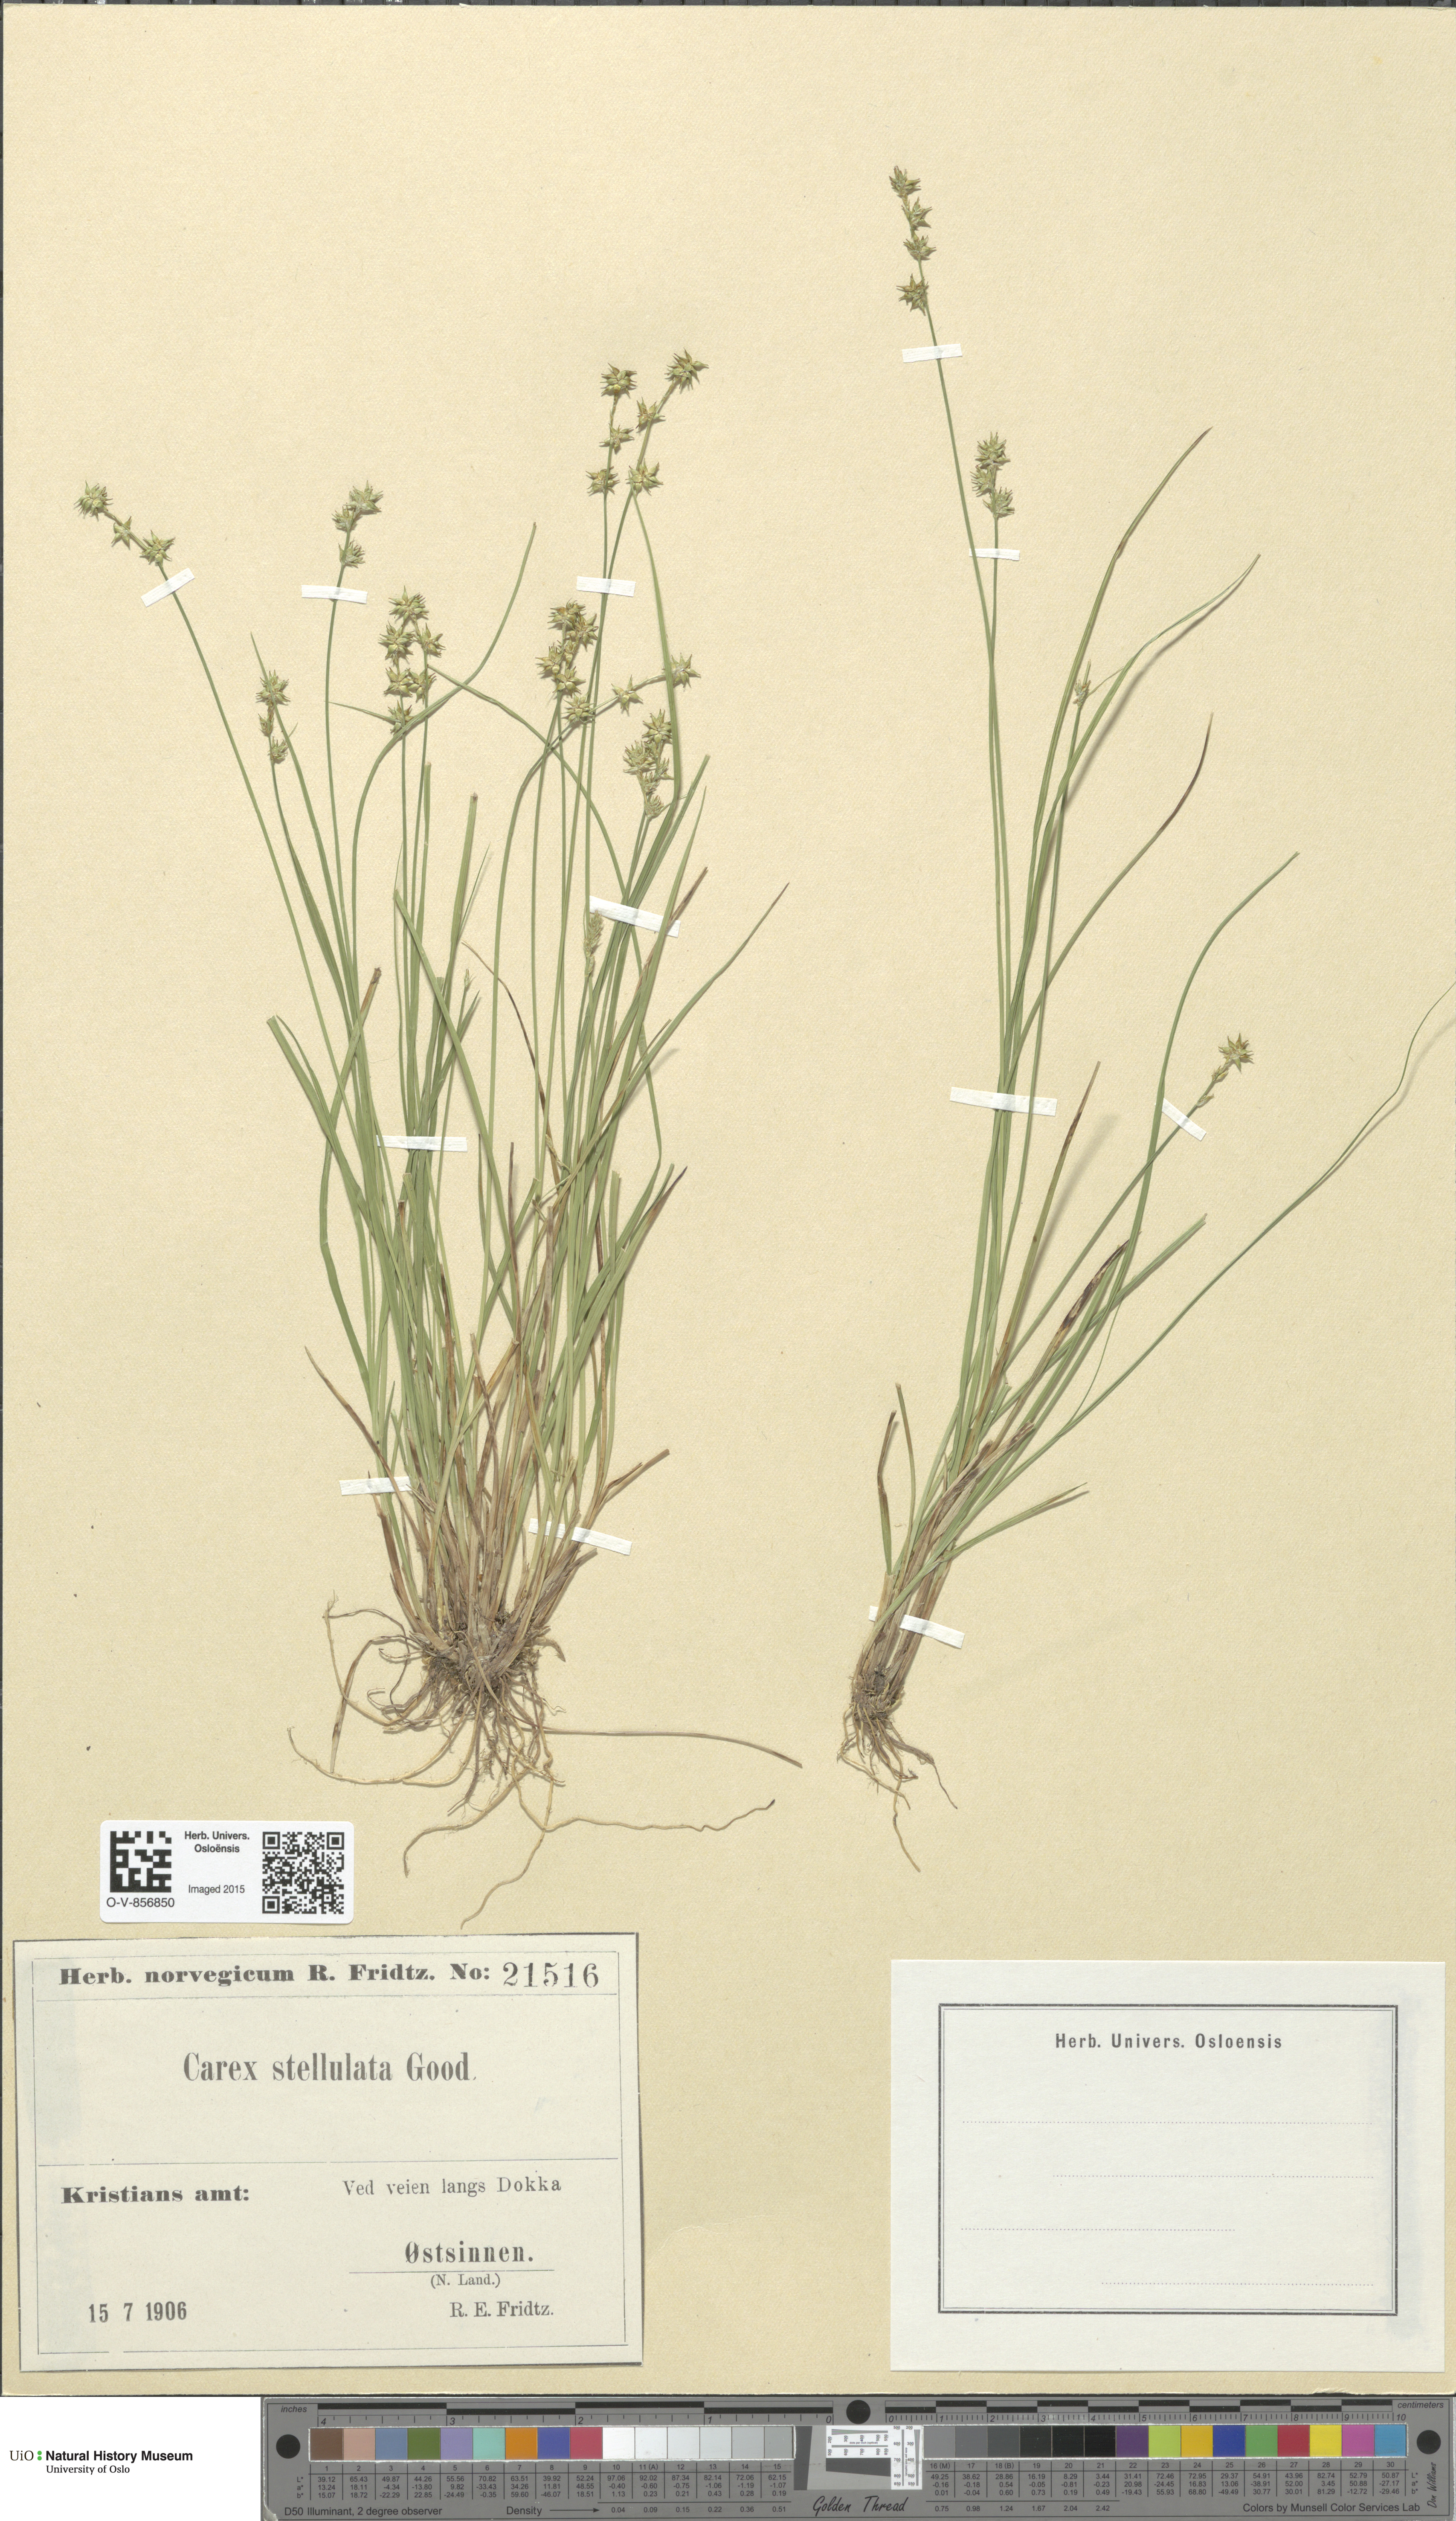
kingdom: Plantae
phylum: Tracheophyta
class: Liliopsida
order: Poales
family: Cyperaceae
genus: Carex
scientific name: Carex echinata
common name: Star sedge
